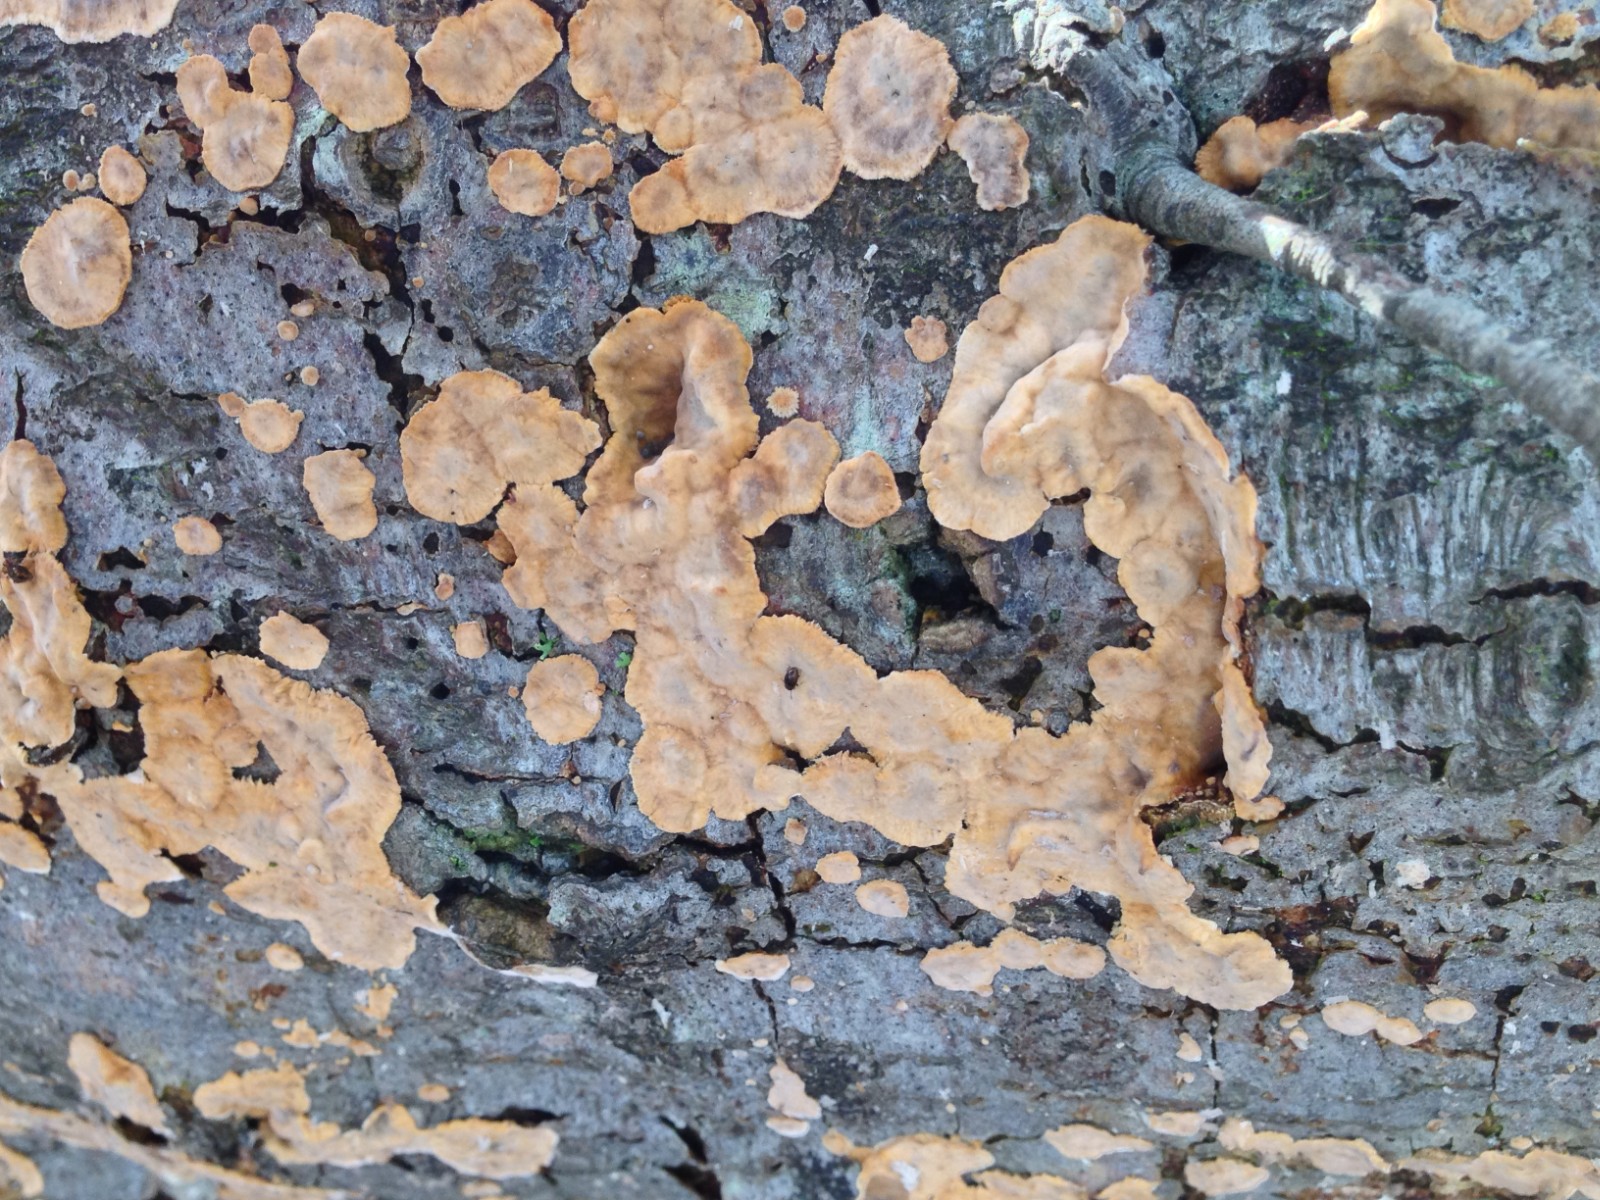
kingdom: Fungi
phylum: Basidiomycota
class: Agaricomycetes
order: Russulales
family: Stereaceae
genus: Stereum
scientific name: Stereum rugosum
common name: rynket lædersvamp
